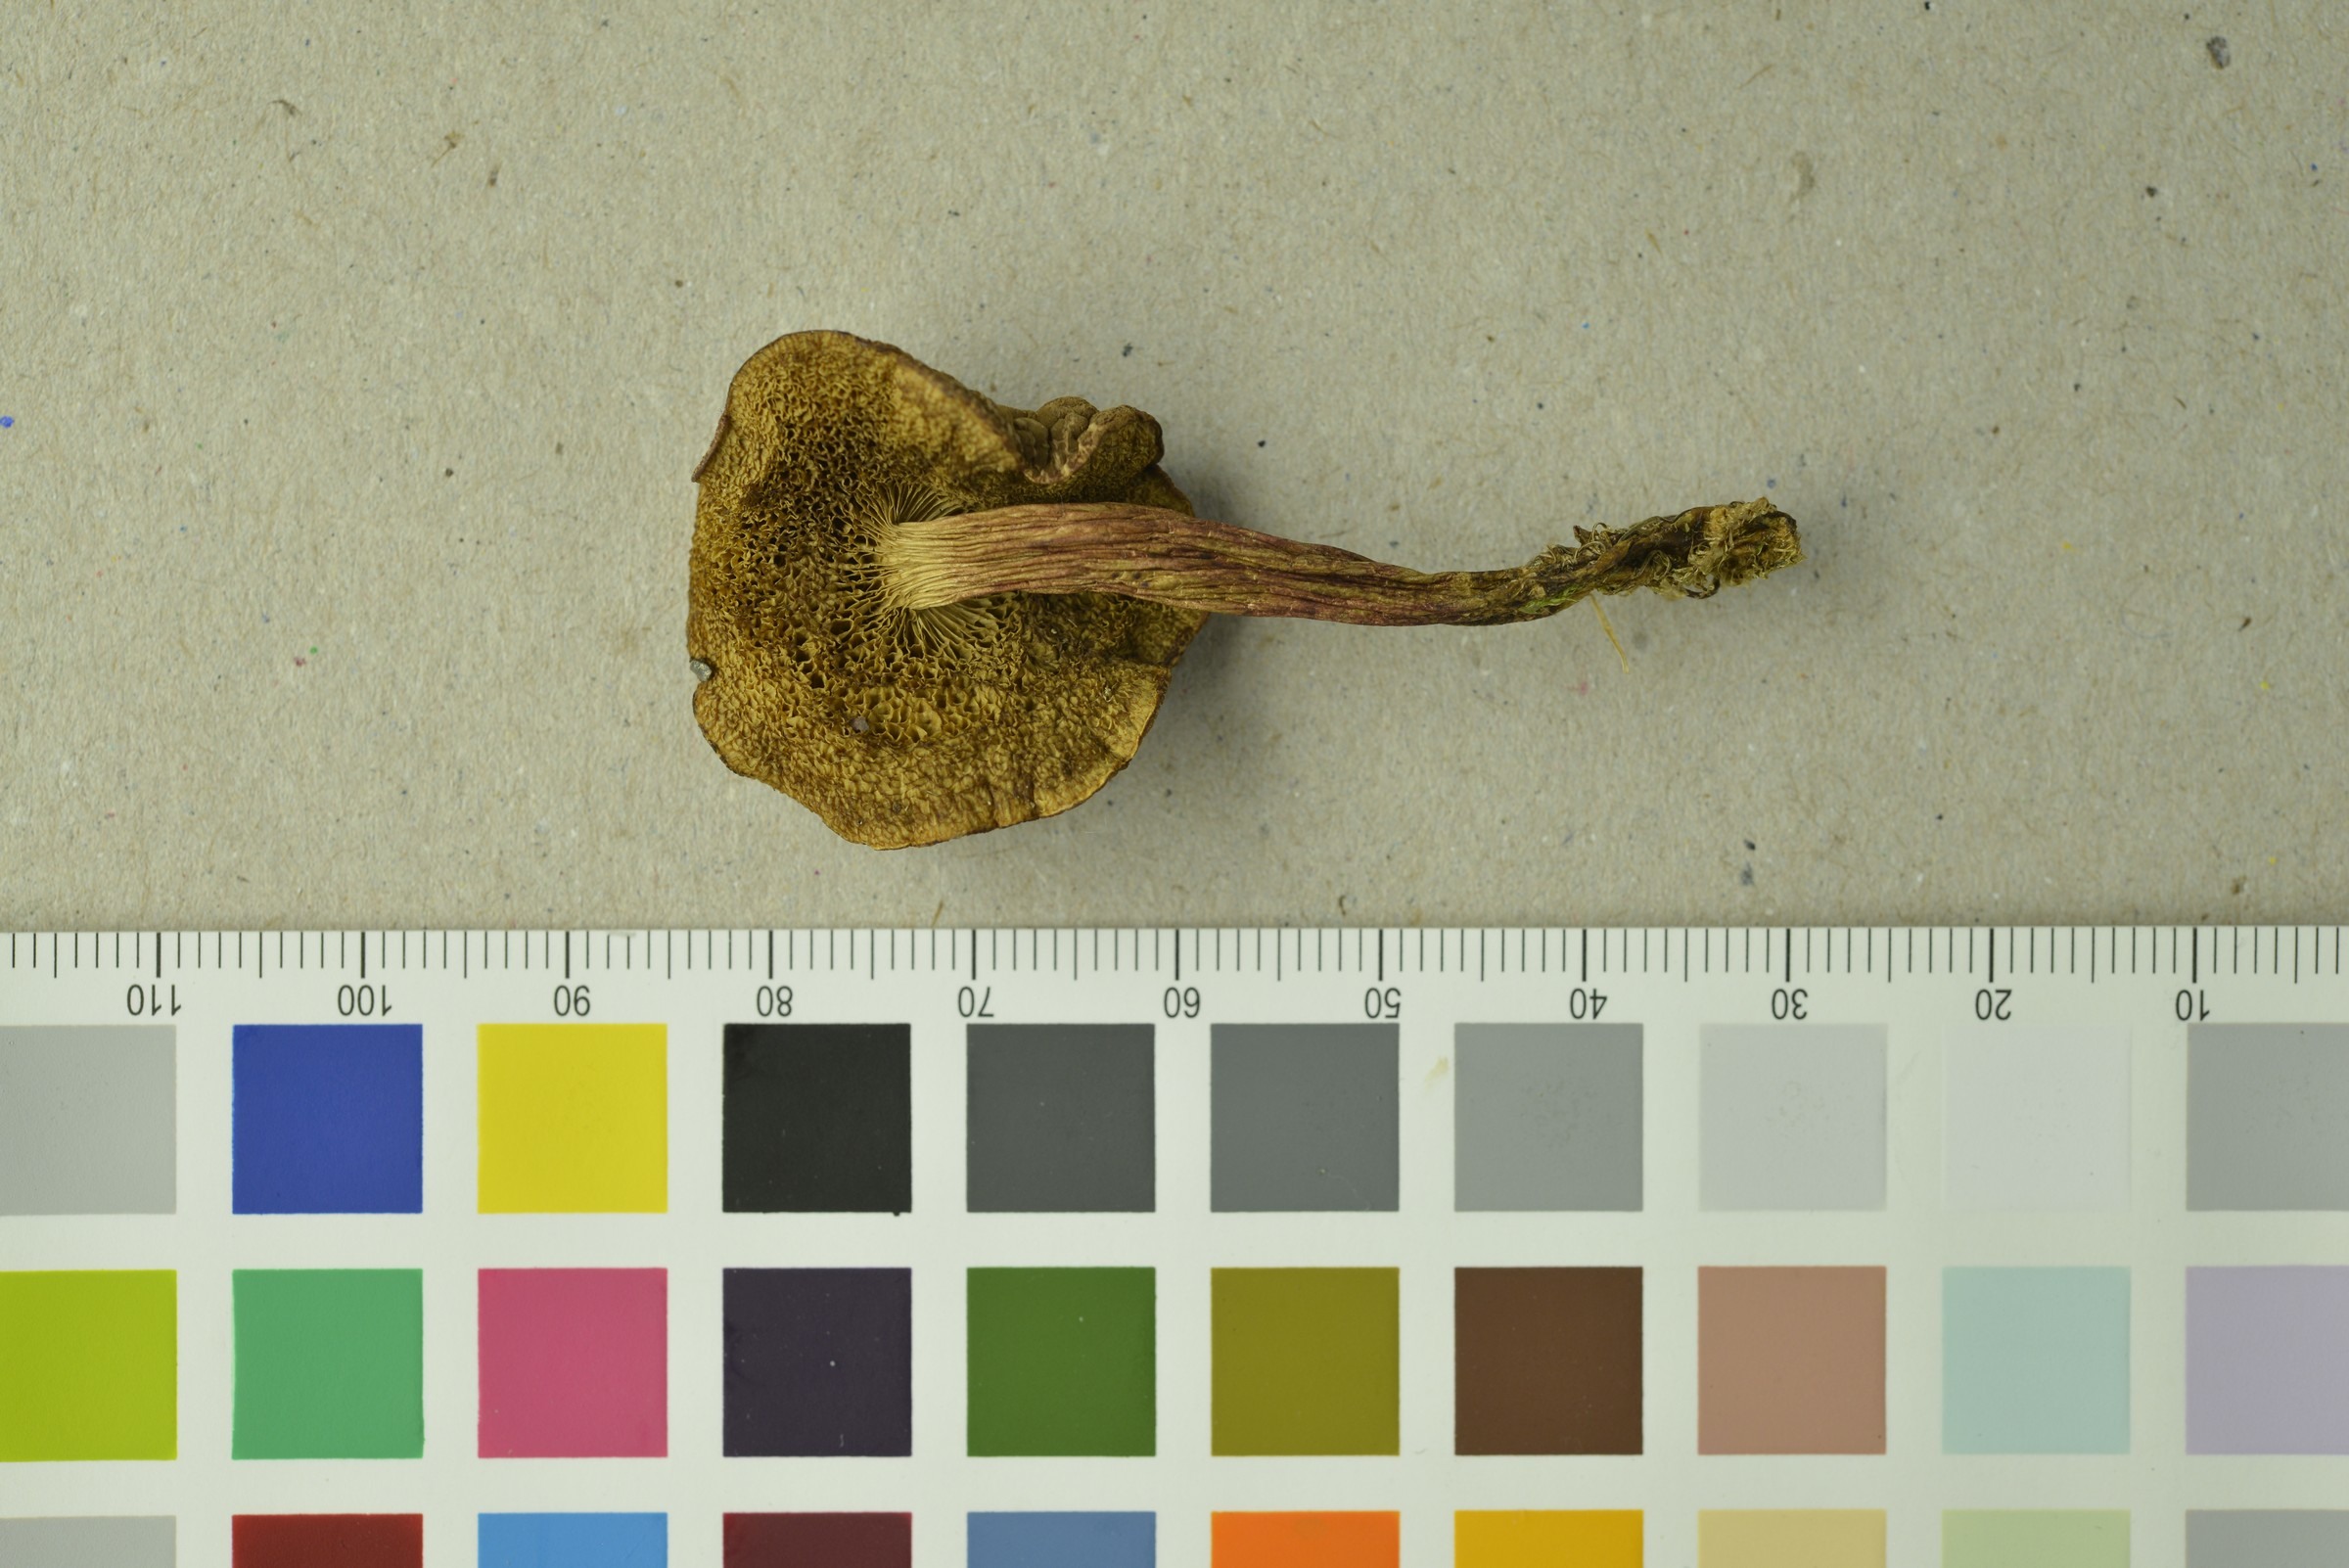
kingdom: Fungi
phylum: Basidiomycota
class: Agaricomycetes
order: Boletales
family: Boletaceae
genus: Hortiboletus
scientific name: Hortiboletus rubellus
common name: Ruby bolete
